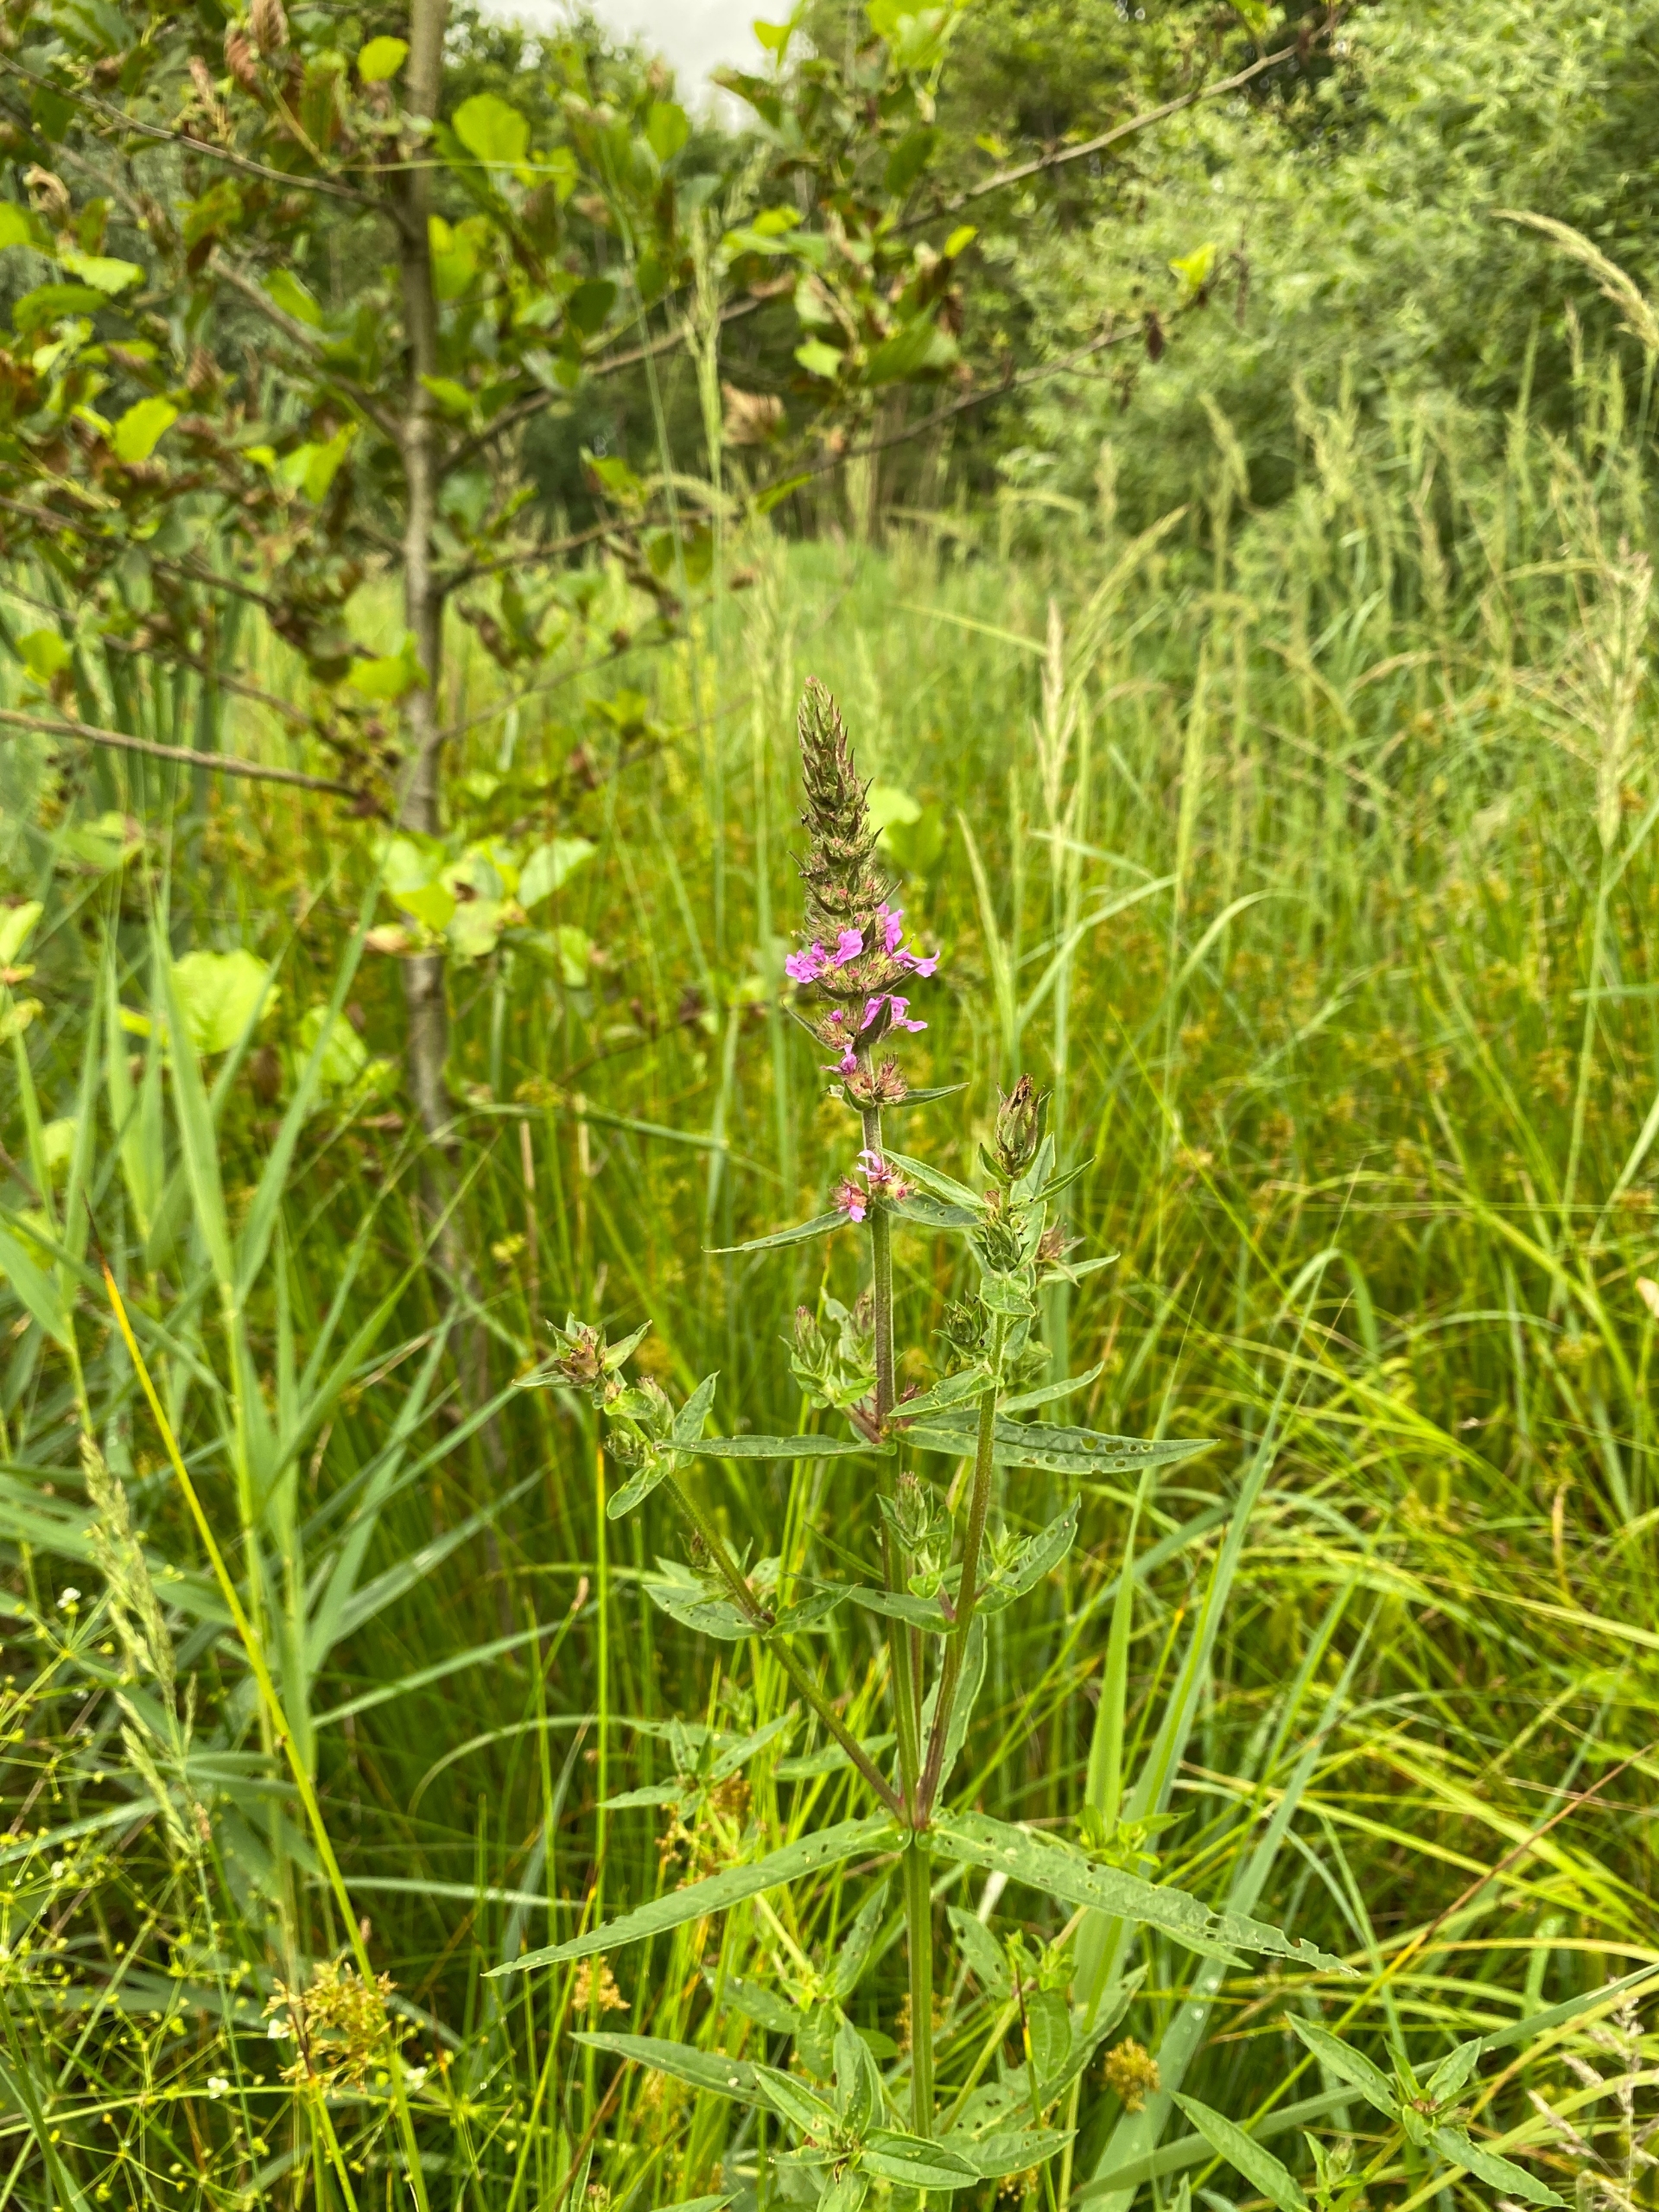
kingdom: Plantae
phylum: Tracheophyta
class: Magnoliopsida
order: Myrtales
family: Lythraceae
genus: Lythrum
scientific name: Lythrum salicaria
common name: Kattehale
